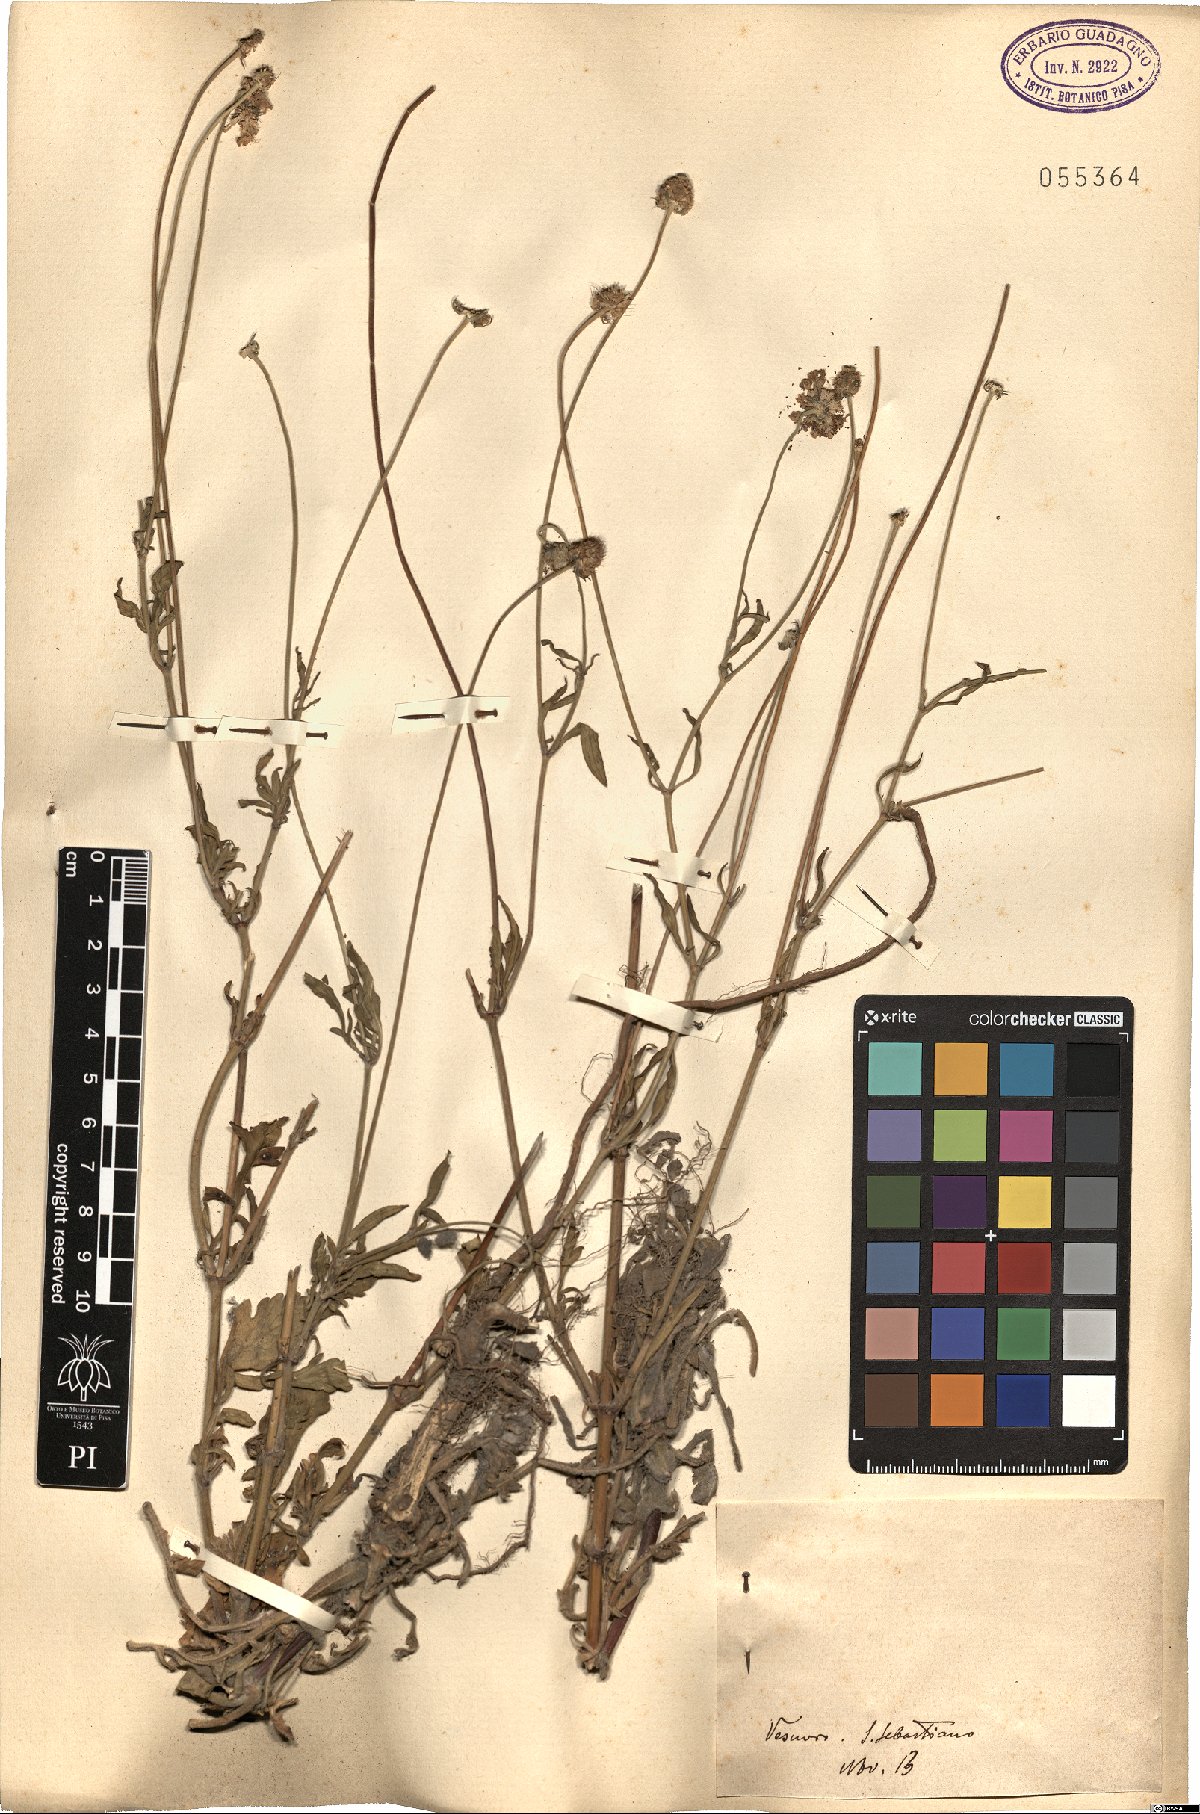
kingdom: Plantae
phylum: Tracheophyta
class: Magnoliopsida
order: Dipsacales
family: Caprifoliaceae
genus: Scabiosa
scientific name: Scabiosa
